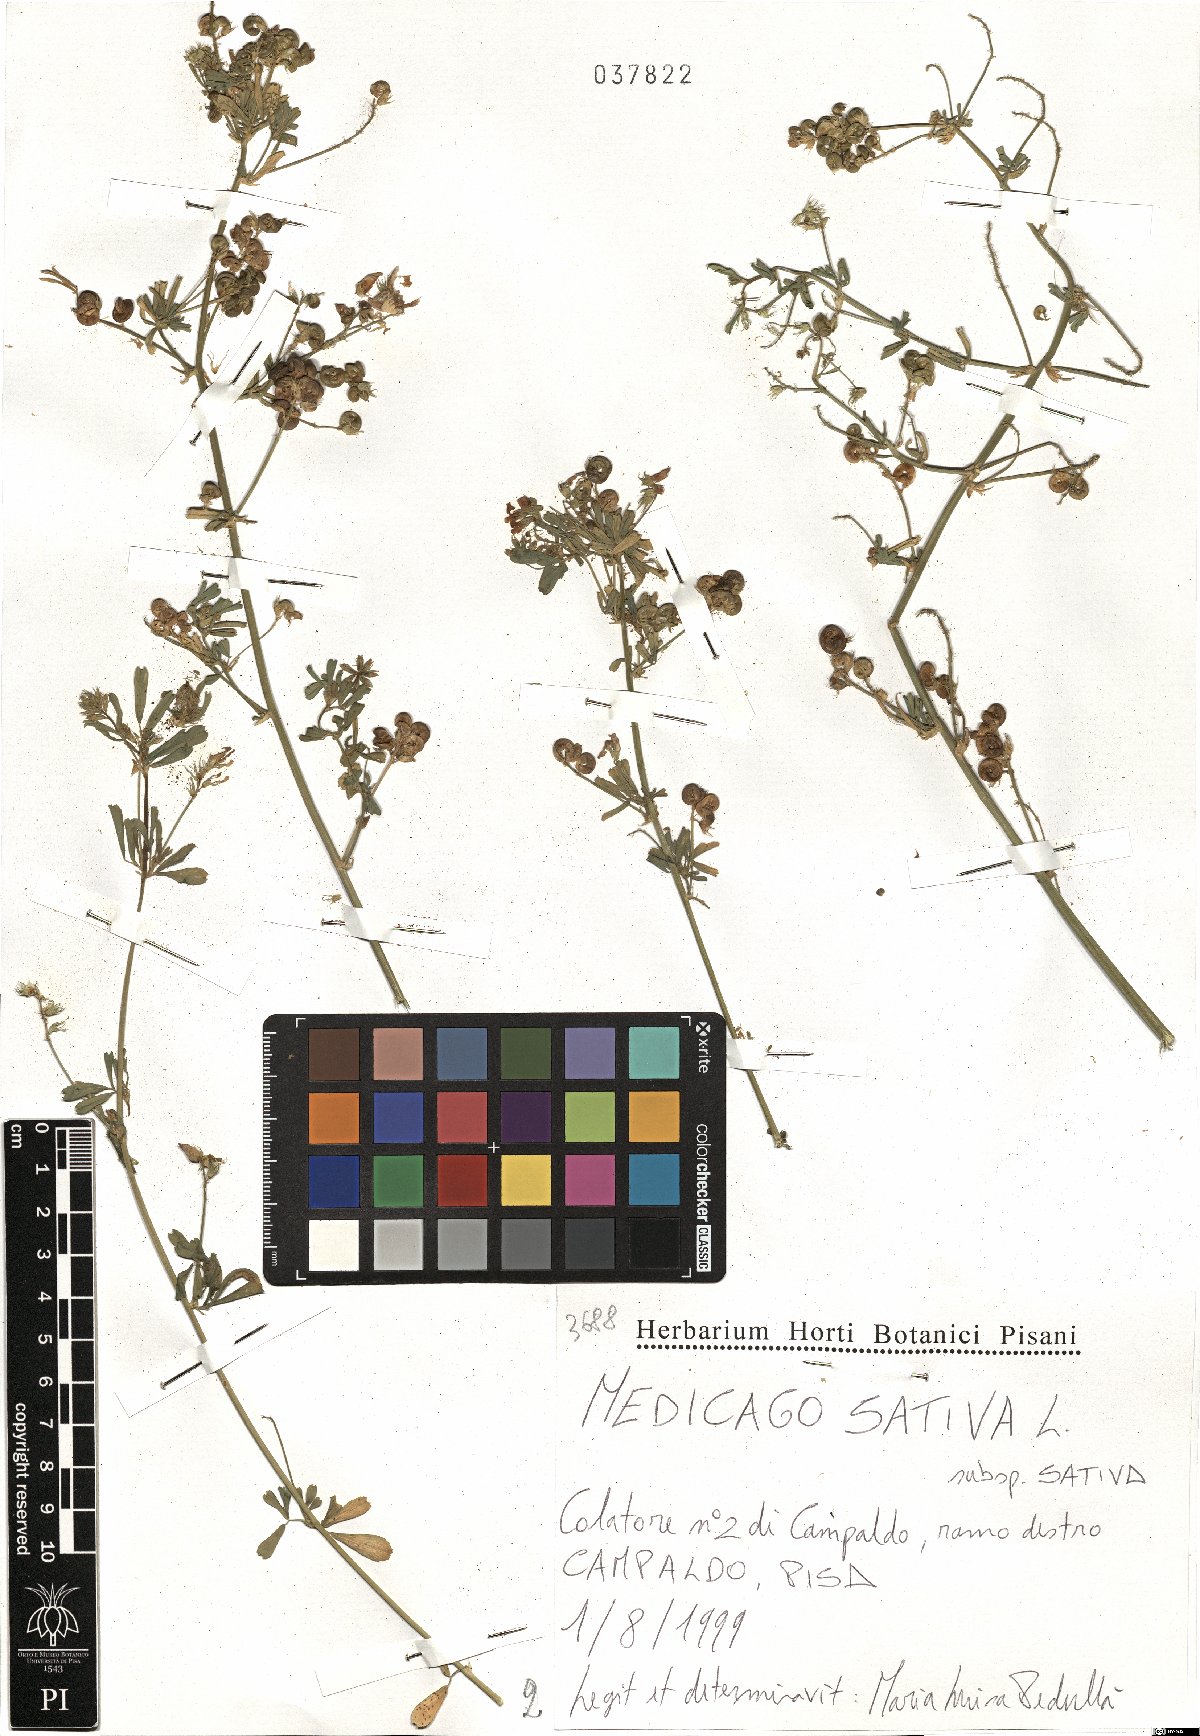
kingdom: Plantae
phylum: Tracheophyta
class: Magnoliopsida
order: Fabales
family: Fabaceae
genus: Medicago
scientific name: Medicago sativa
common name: Alfalfa
